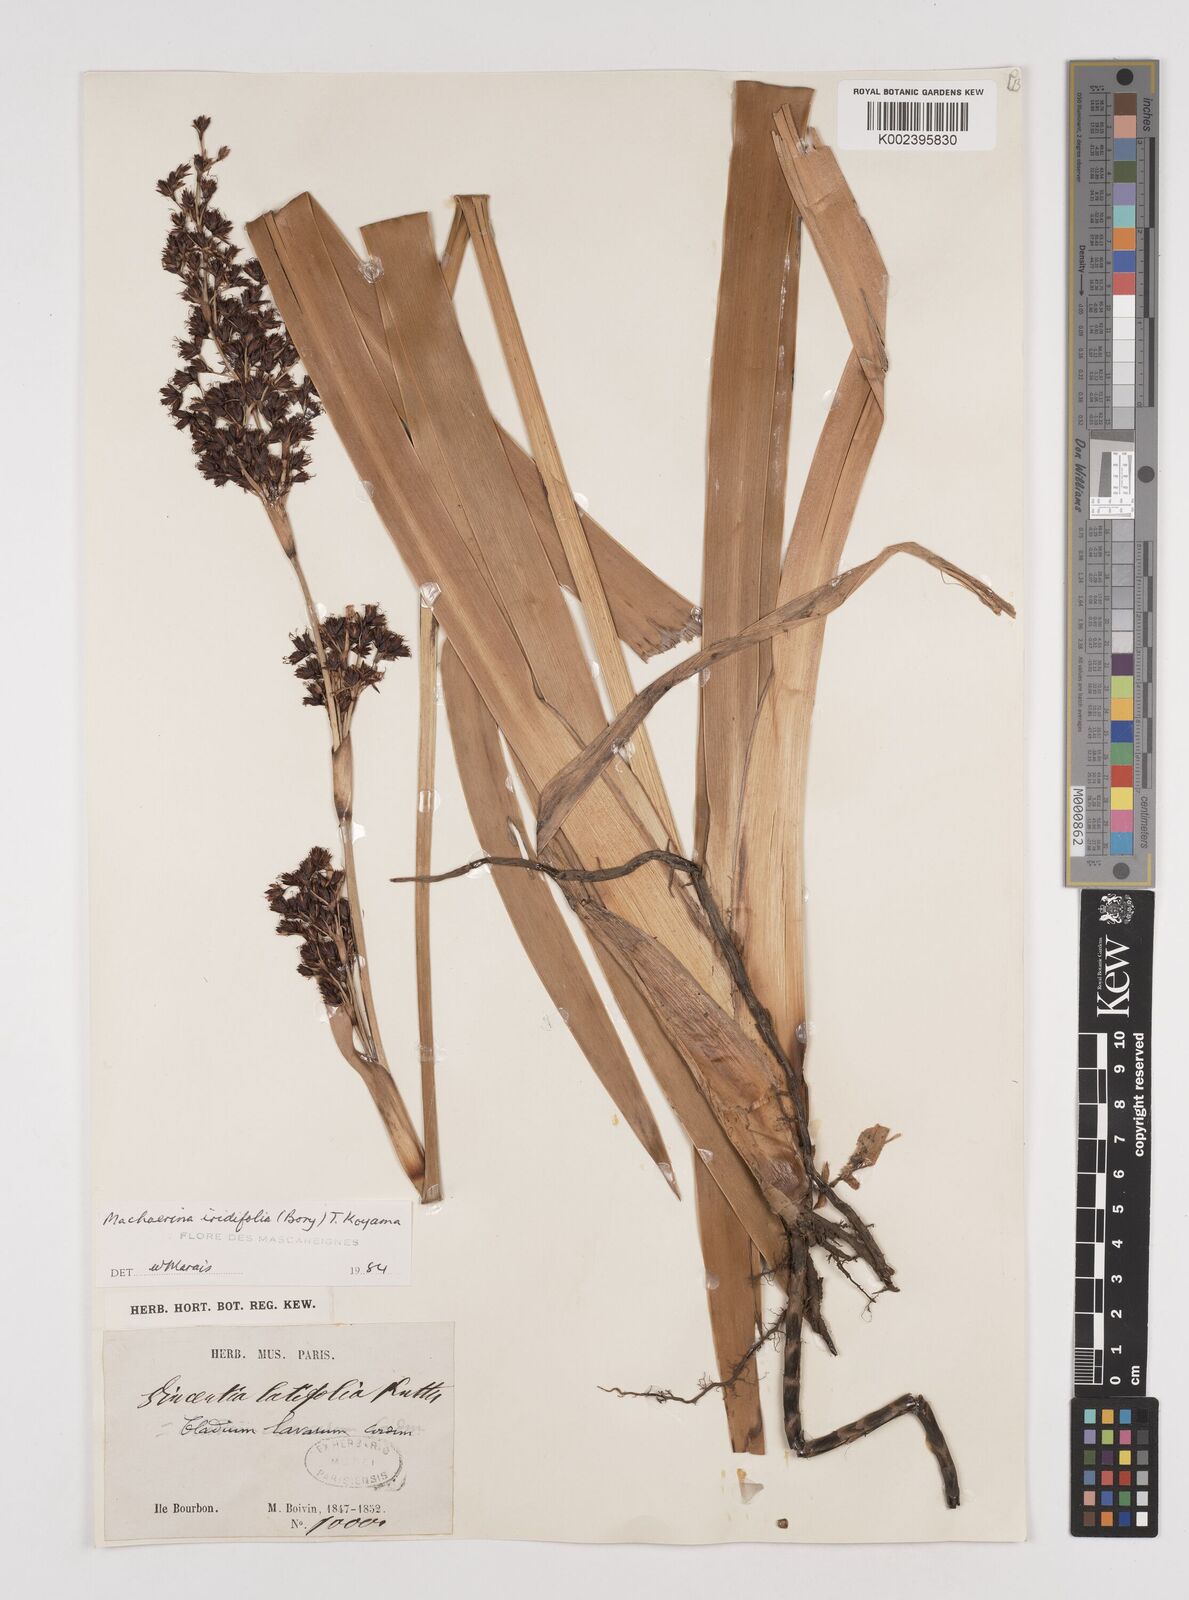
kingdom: Plantae
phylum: Tracheophyta
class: Liliopsida
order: Poales
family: Cyperaceae
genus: Machaerina
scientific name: Machaerina iridifolia
